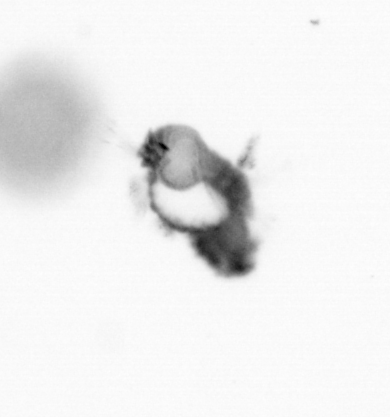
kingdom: Animalia
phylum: Annelida
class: Polychaeta
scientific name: Polychaeta
